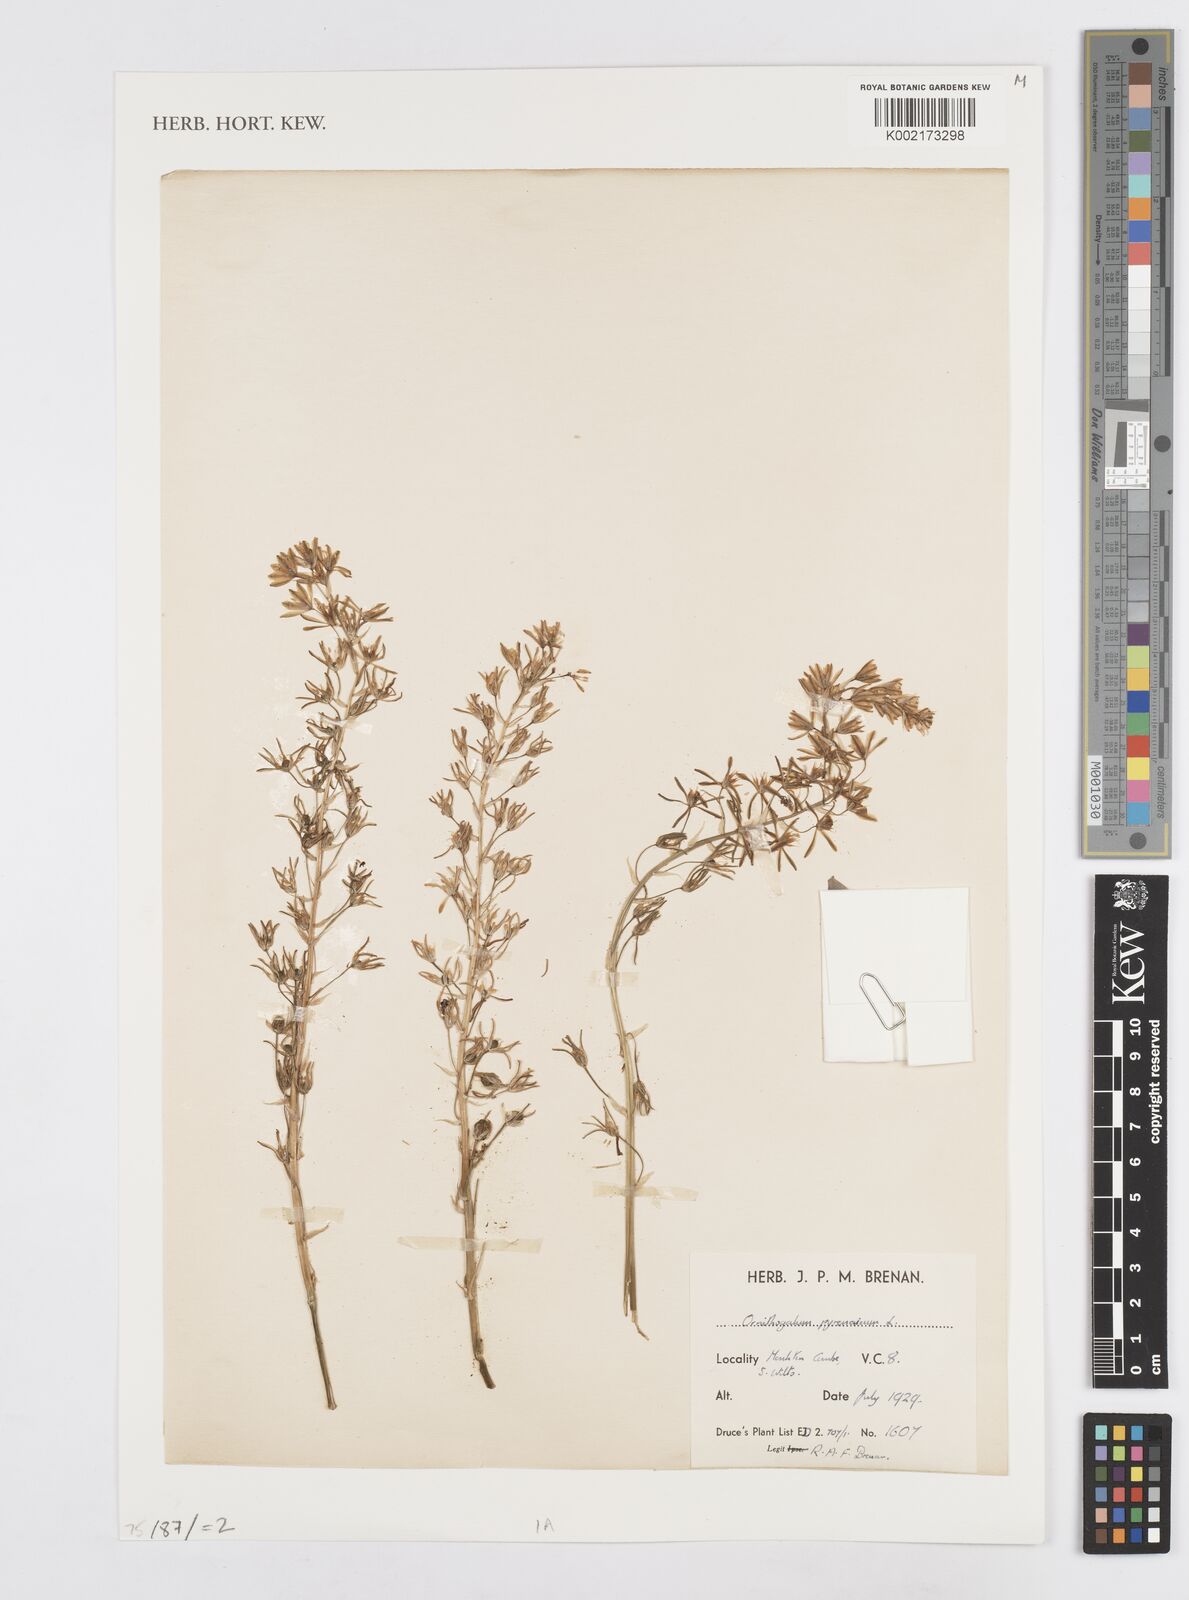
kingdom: Plantae
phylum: Tracheophyta
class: Liliopsida
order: Asparagales
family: Asparagaceae
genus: Ornithogalum
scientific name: Ornithogalum sphaerocarpum
